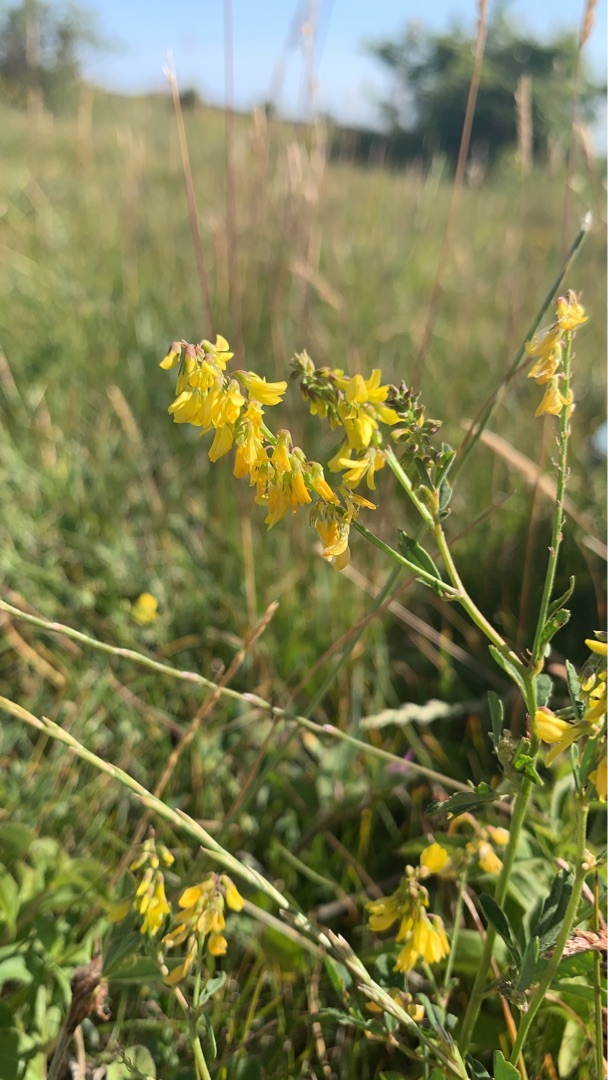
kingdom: Plantae
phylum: Tracheophyta
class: Magnoliopsida
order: Fabales
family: Fabaceae
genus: Melilotus
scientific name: Melilotus altissimus
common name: Høj stenkløver
